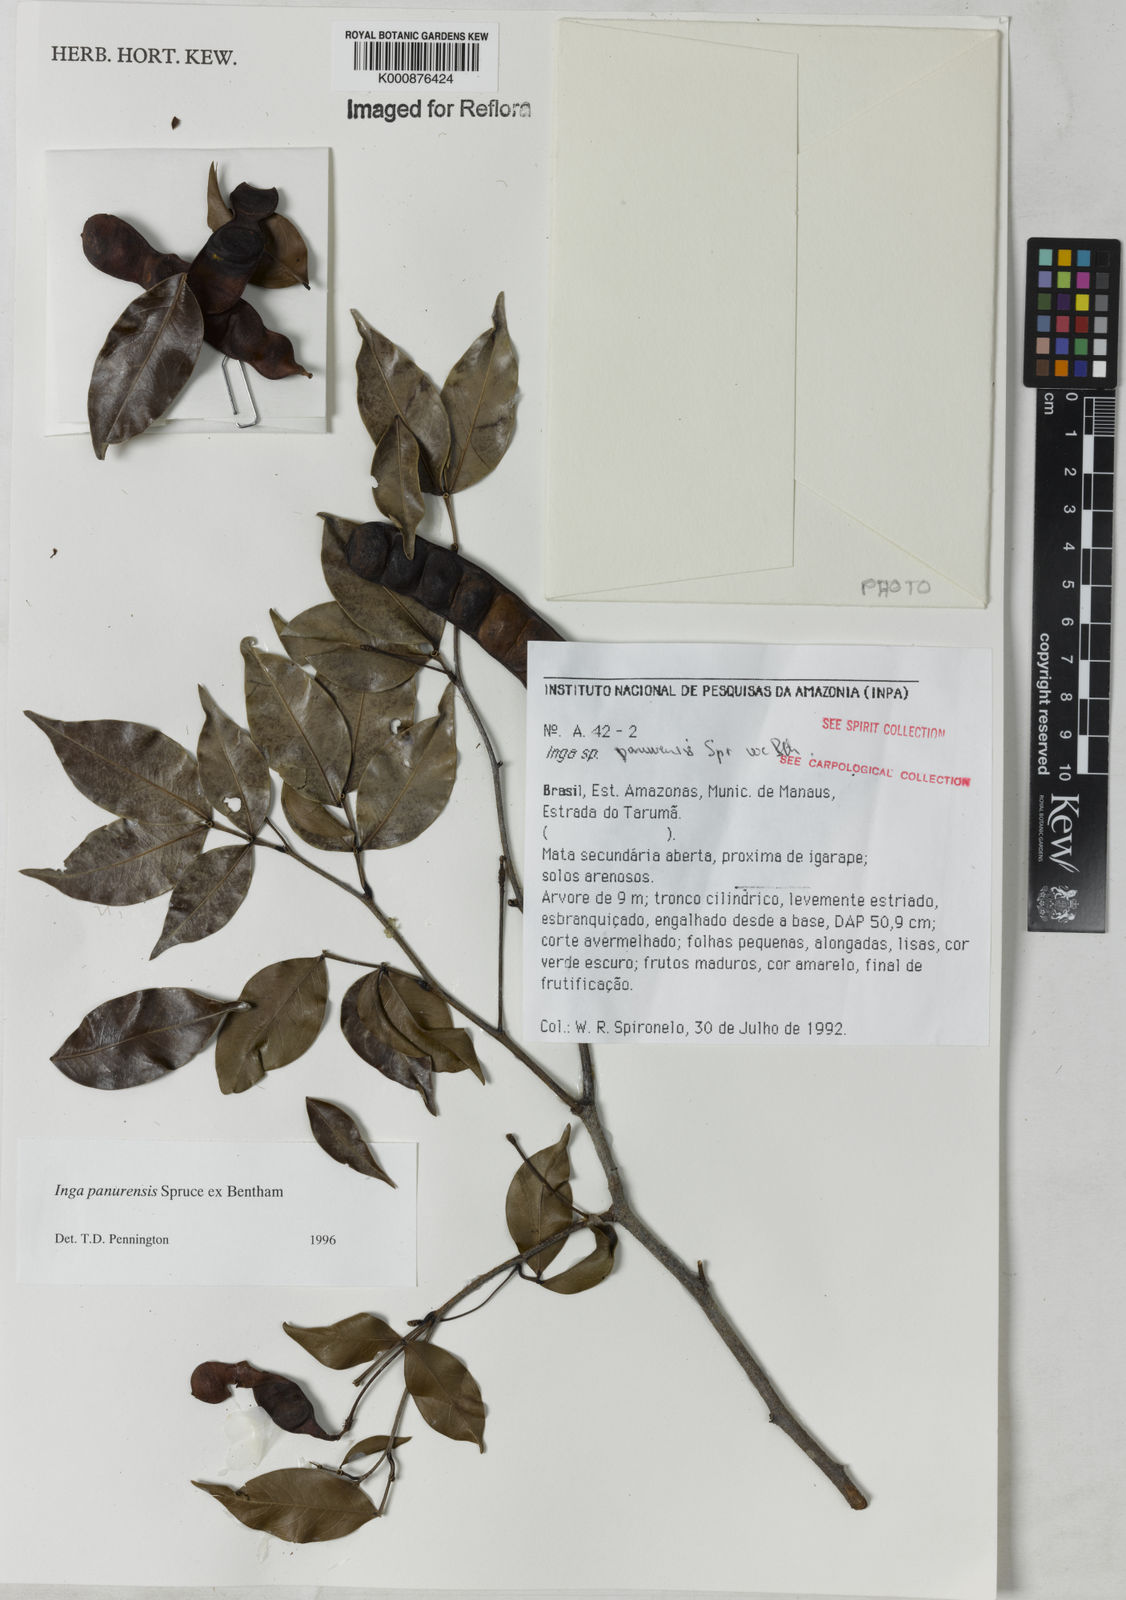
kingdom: Plantae
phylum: Tracheophyta
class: Magnoliopsida
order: Fabales
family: Fabaceae
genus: Inga
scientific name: Inga panurensis
